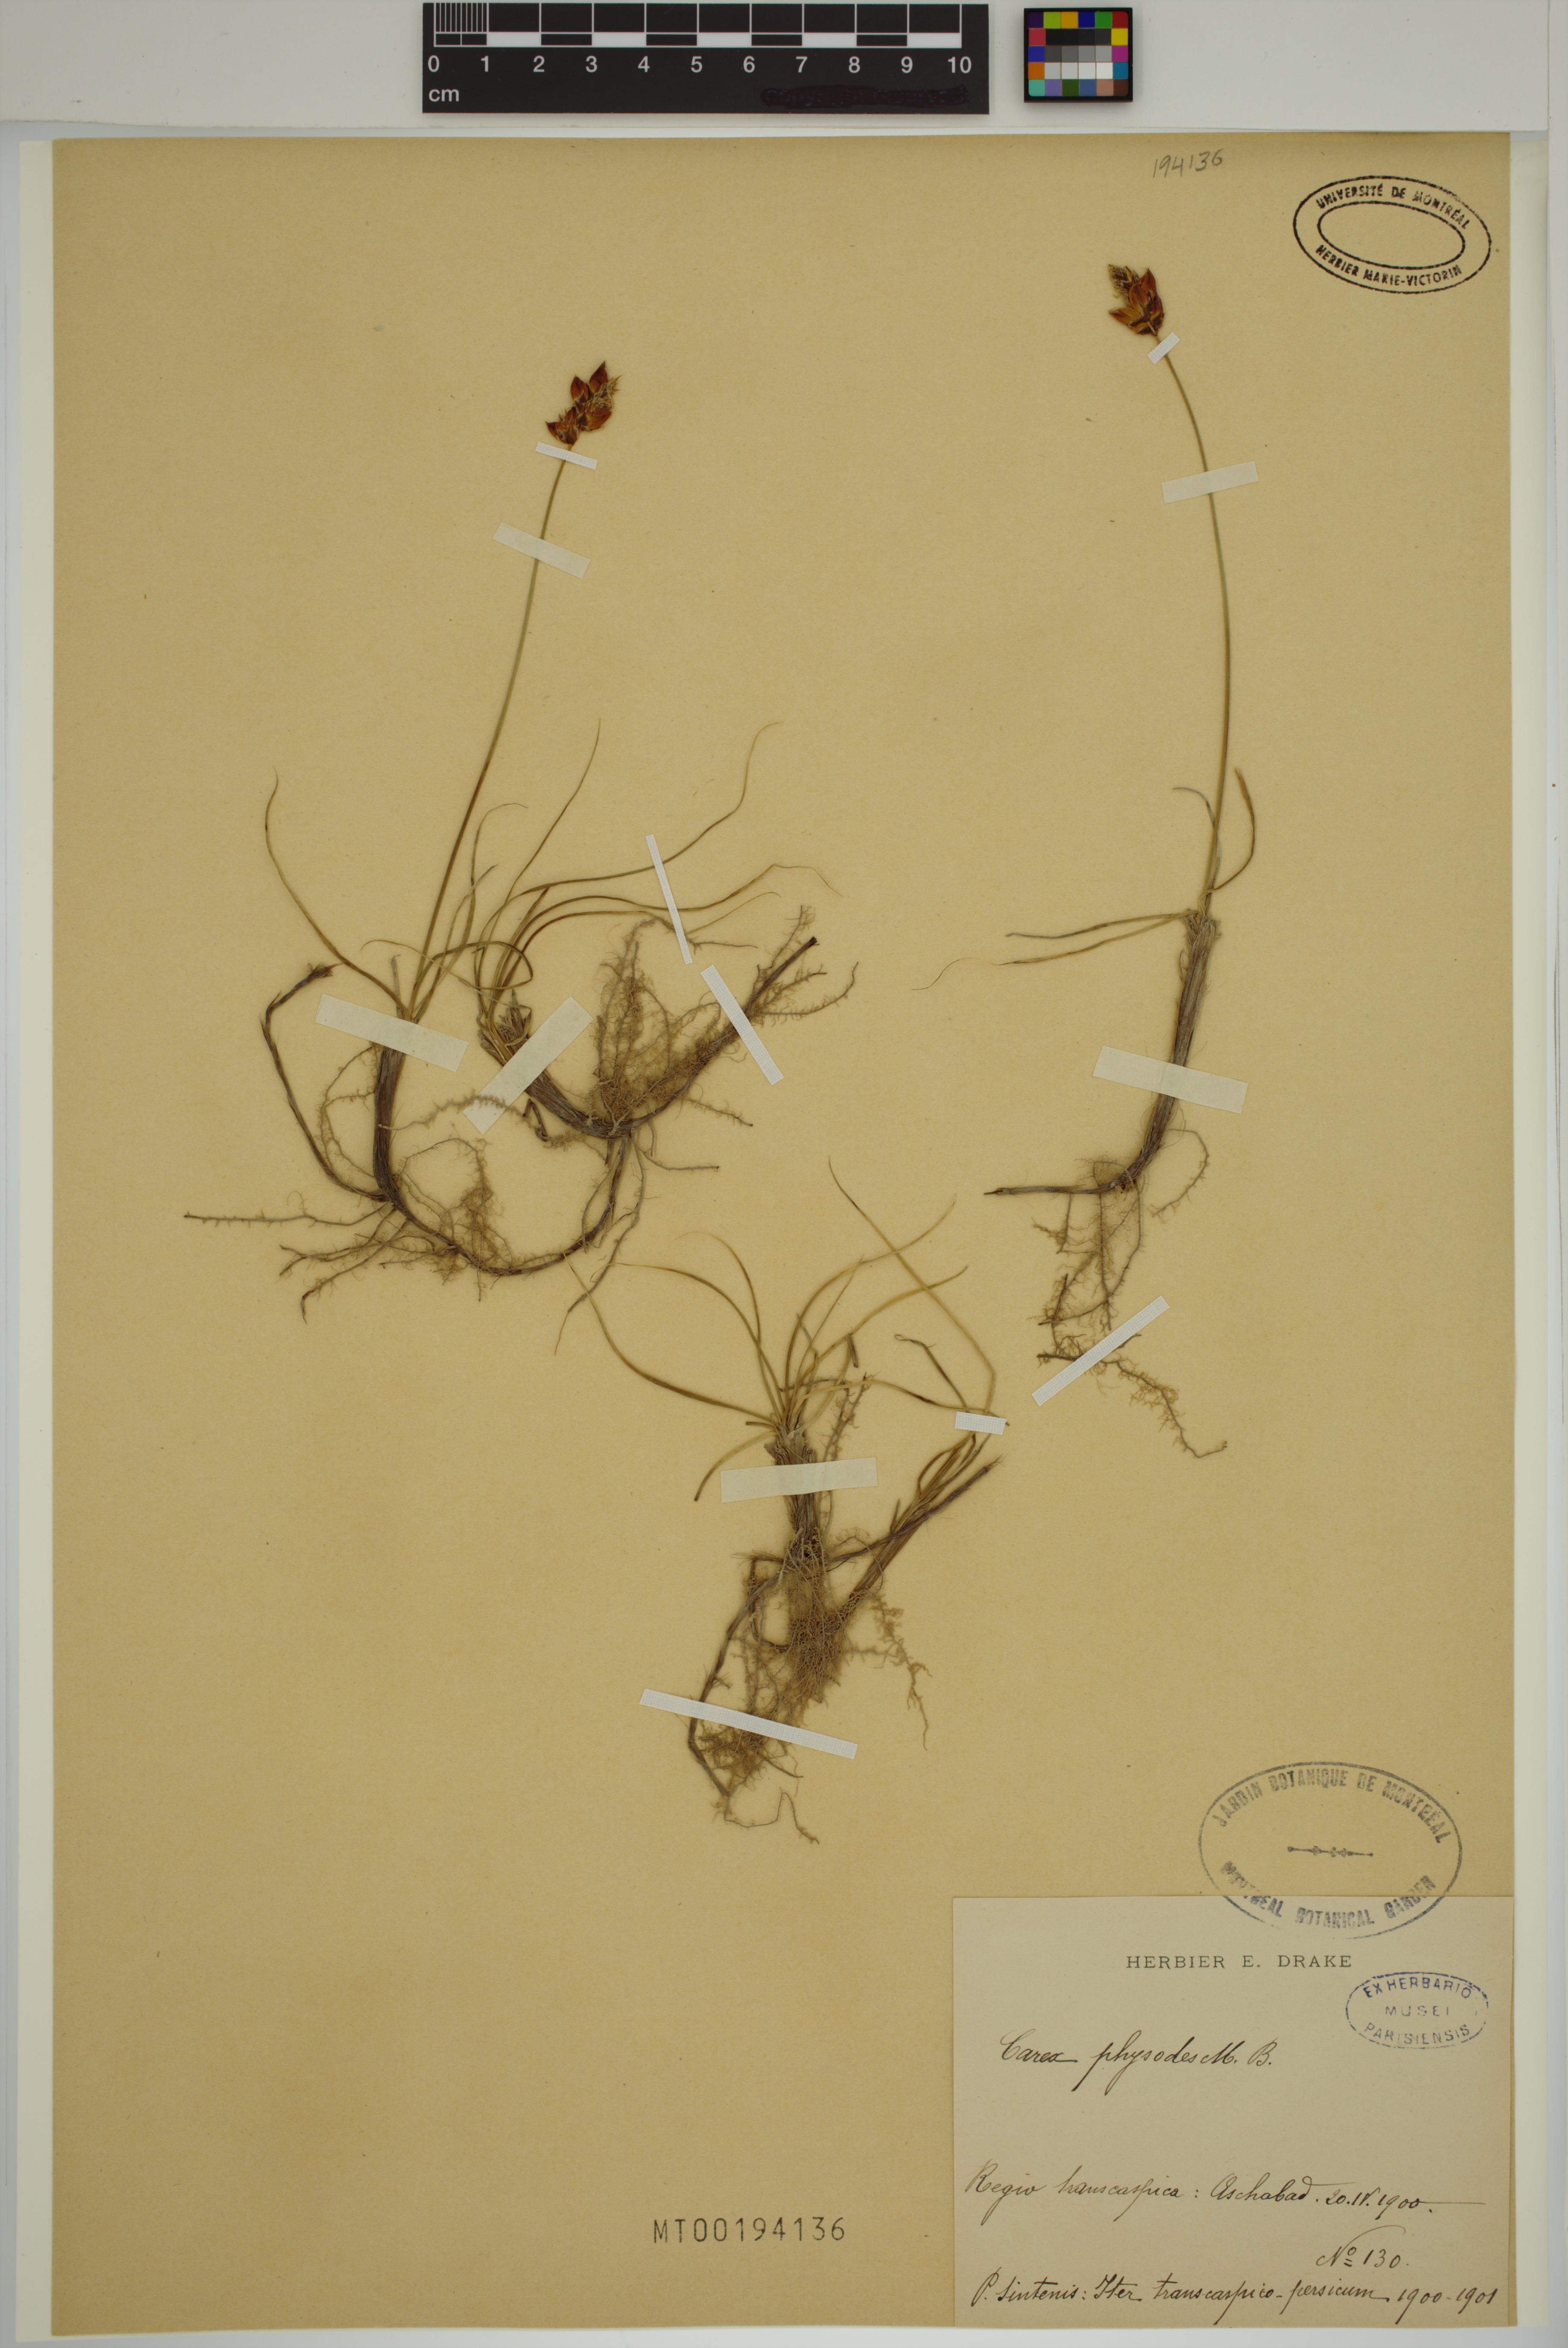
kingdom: Plantae
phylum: Tracheophyta
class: Liliopsida
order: Poales
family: Cyperaceae
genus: Carex
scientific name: Carex physodes
